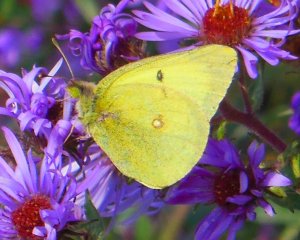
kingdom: Animalia
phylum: Arthropoda
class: Insecta
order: Lepidoptera
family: Pieridae
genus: Colias
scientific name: Colias philodice
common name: Clouded Sulphur
